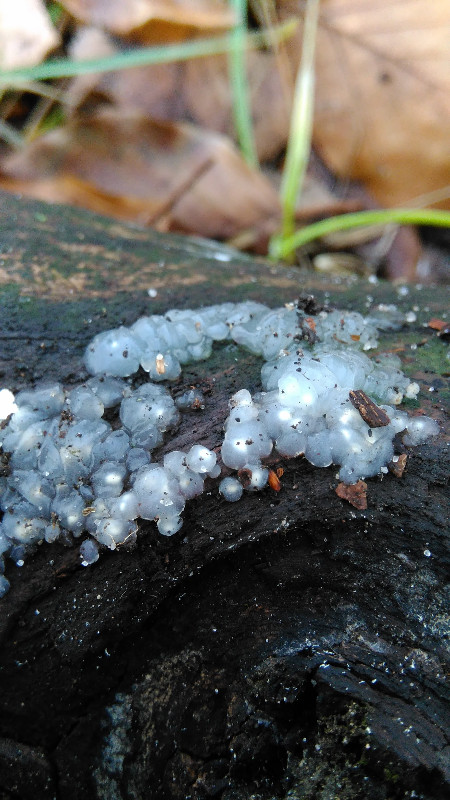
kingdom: Fungi
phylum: Basidiomycota
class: Agaricomycetes
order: Auriculariales
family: Hyaloriaceae
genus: Myxarium
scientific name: Myxarium nucleatum
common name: klar bævretop
